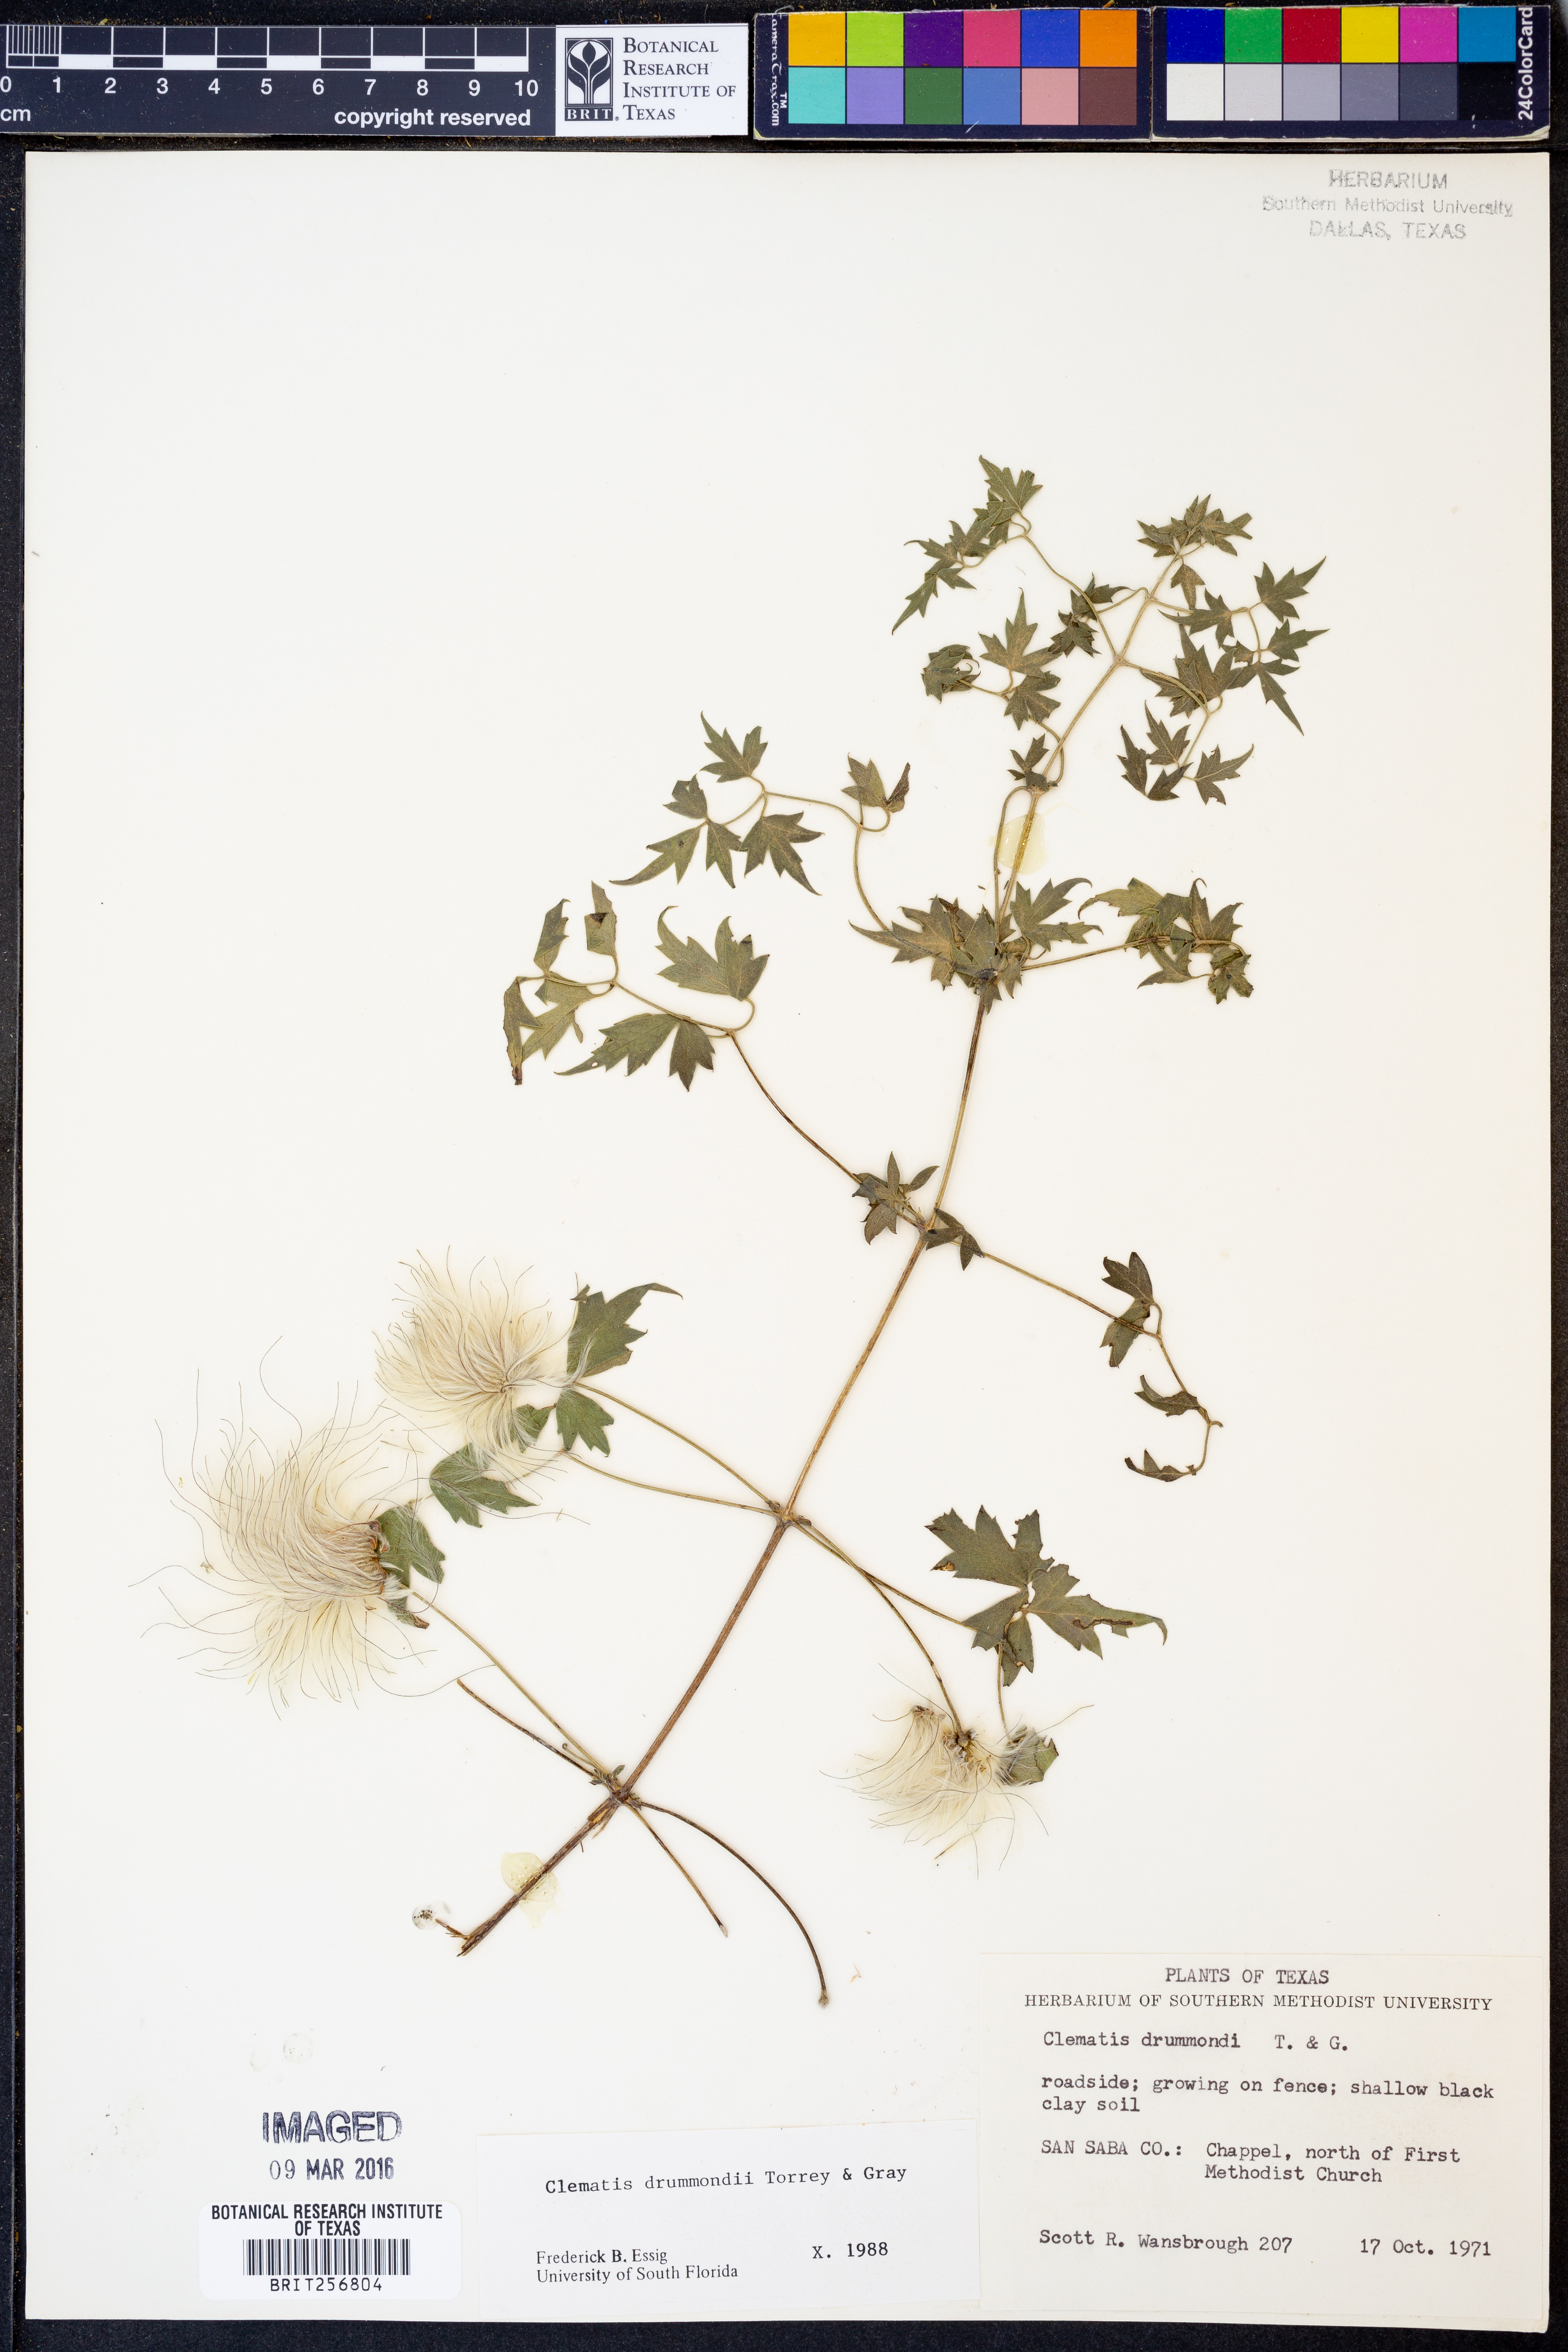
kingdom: Plantae
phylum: Tracheophyta
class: Magnoliopsida
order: Ranunculales
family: Ranunculaceae
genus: Clematis
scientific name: Clematis drummondii
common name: Texas virgin's bower
